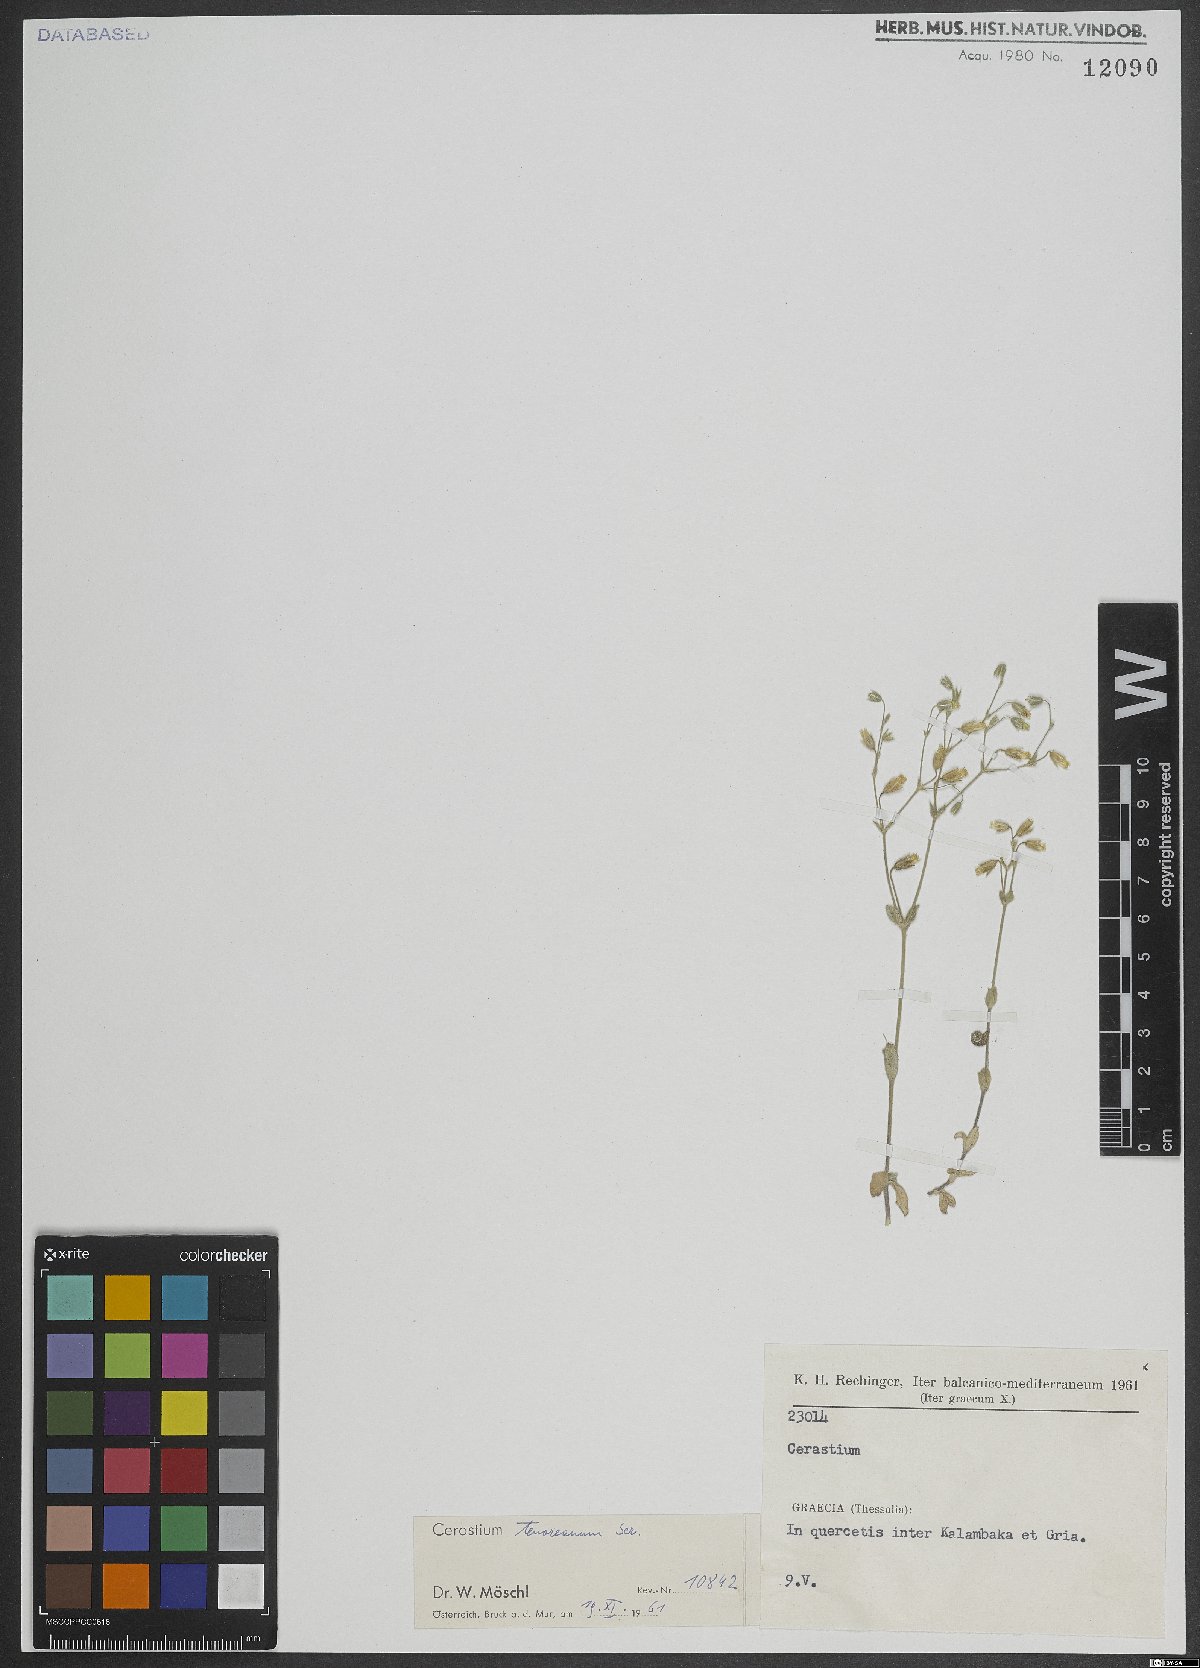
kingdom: Plantae
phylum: Tracheophyta
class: Magnoliopsida
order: Caryophyllales
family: Caryophyllaceae
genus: Cerastium
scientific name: Cerastium tenoreanum
